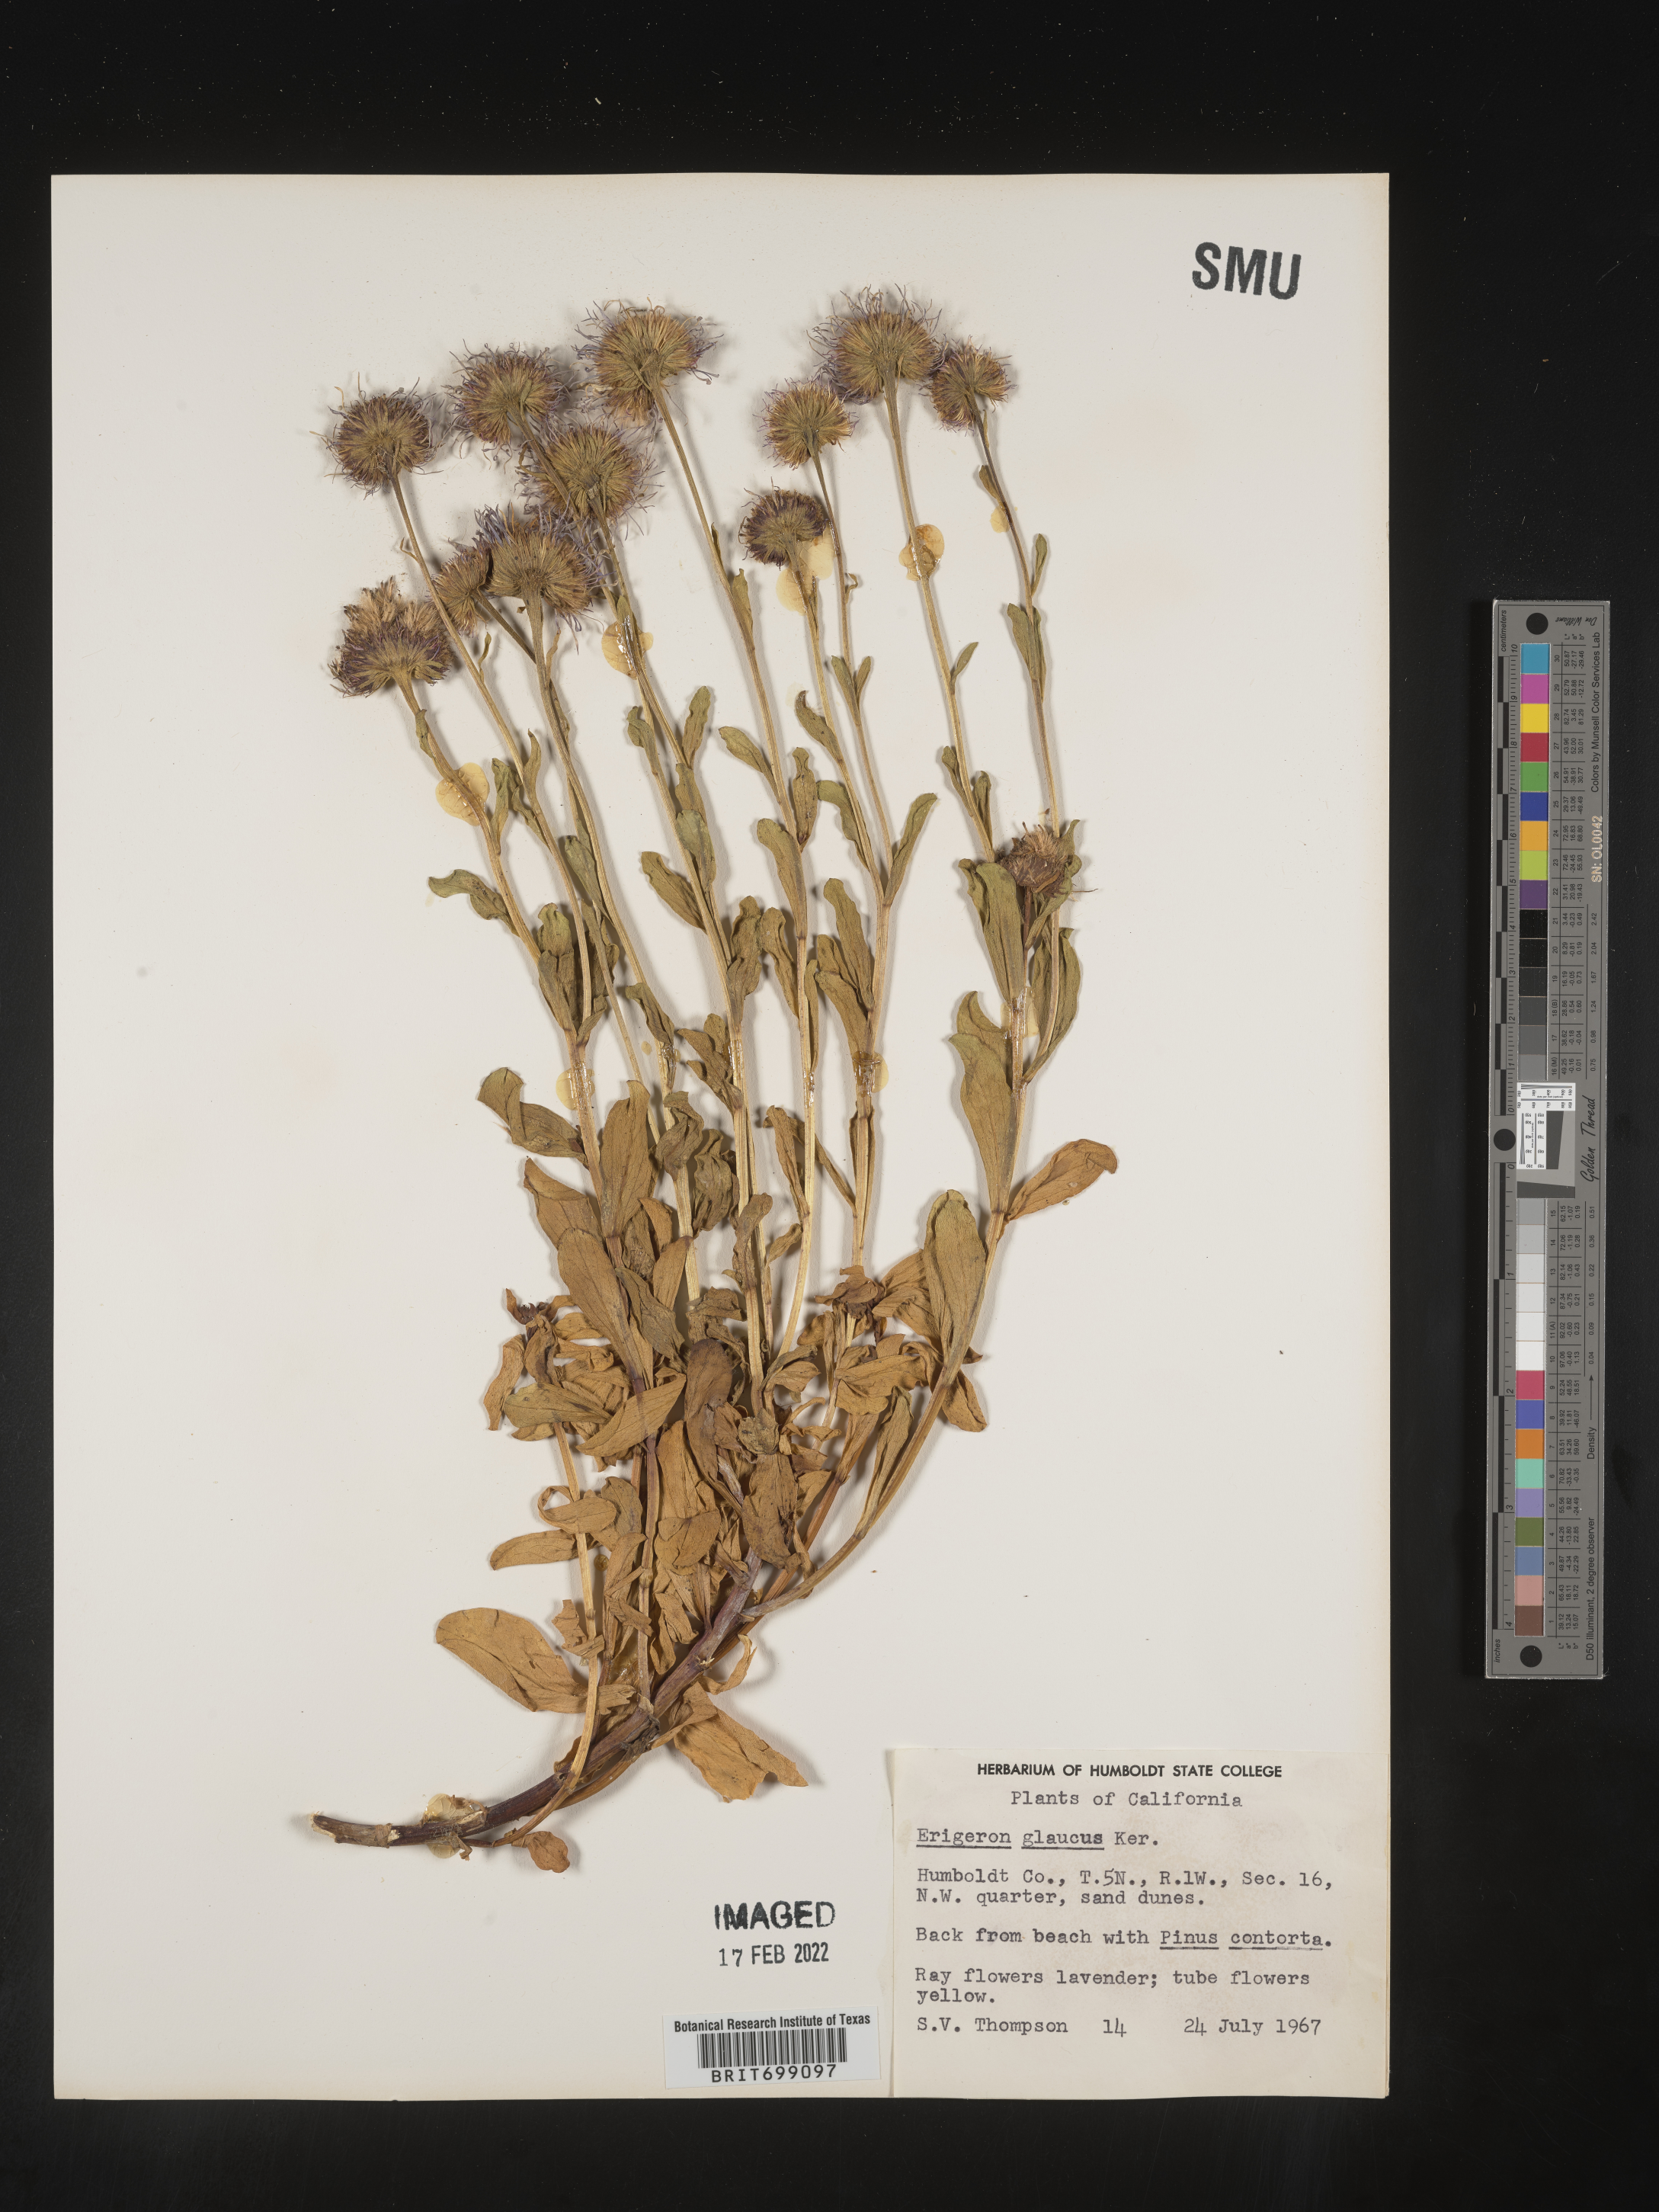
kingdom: Plantae
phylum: Tracheophyta
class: Magnoliopsida
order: Asterales
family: Asteraceae
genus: Erigeron
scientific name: Erigeron glaucus
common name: Seaside daisy
